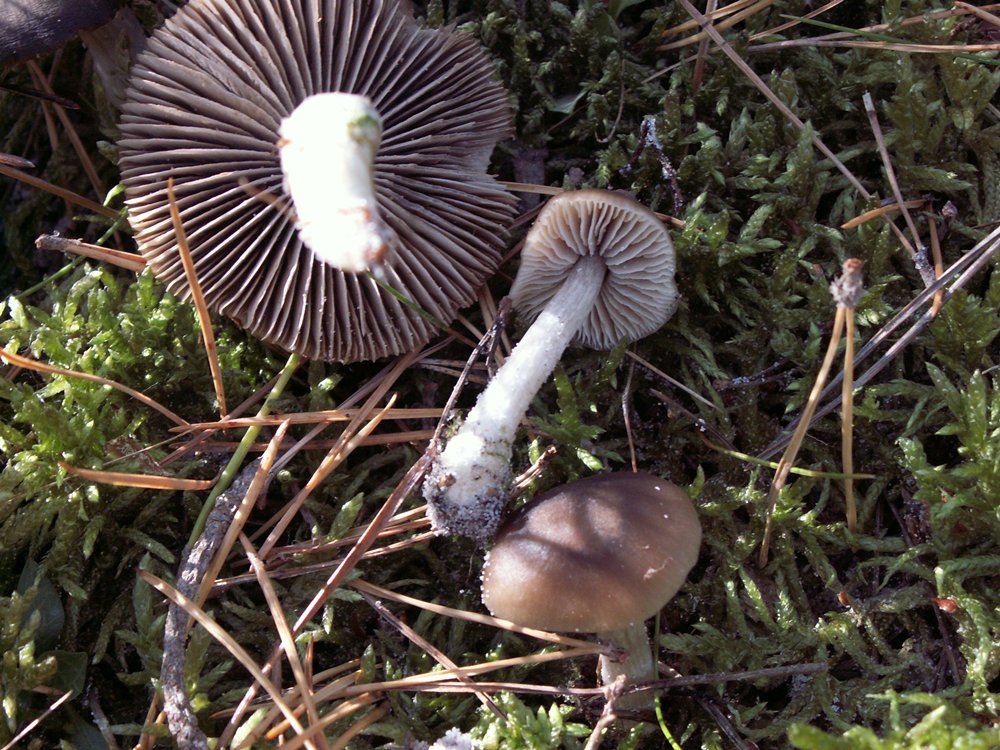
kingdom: Fungi
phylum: Basidiomycota
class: Agaricomycetes
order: Agaricales
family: Entolomataceae
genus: Entocybe
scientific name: Entocybe turbida
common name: plantage-rødblad
